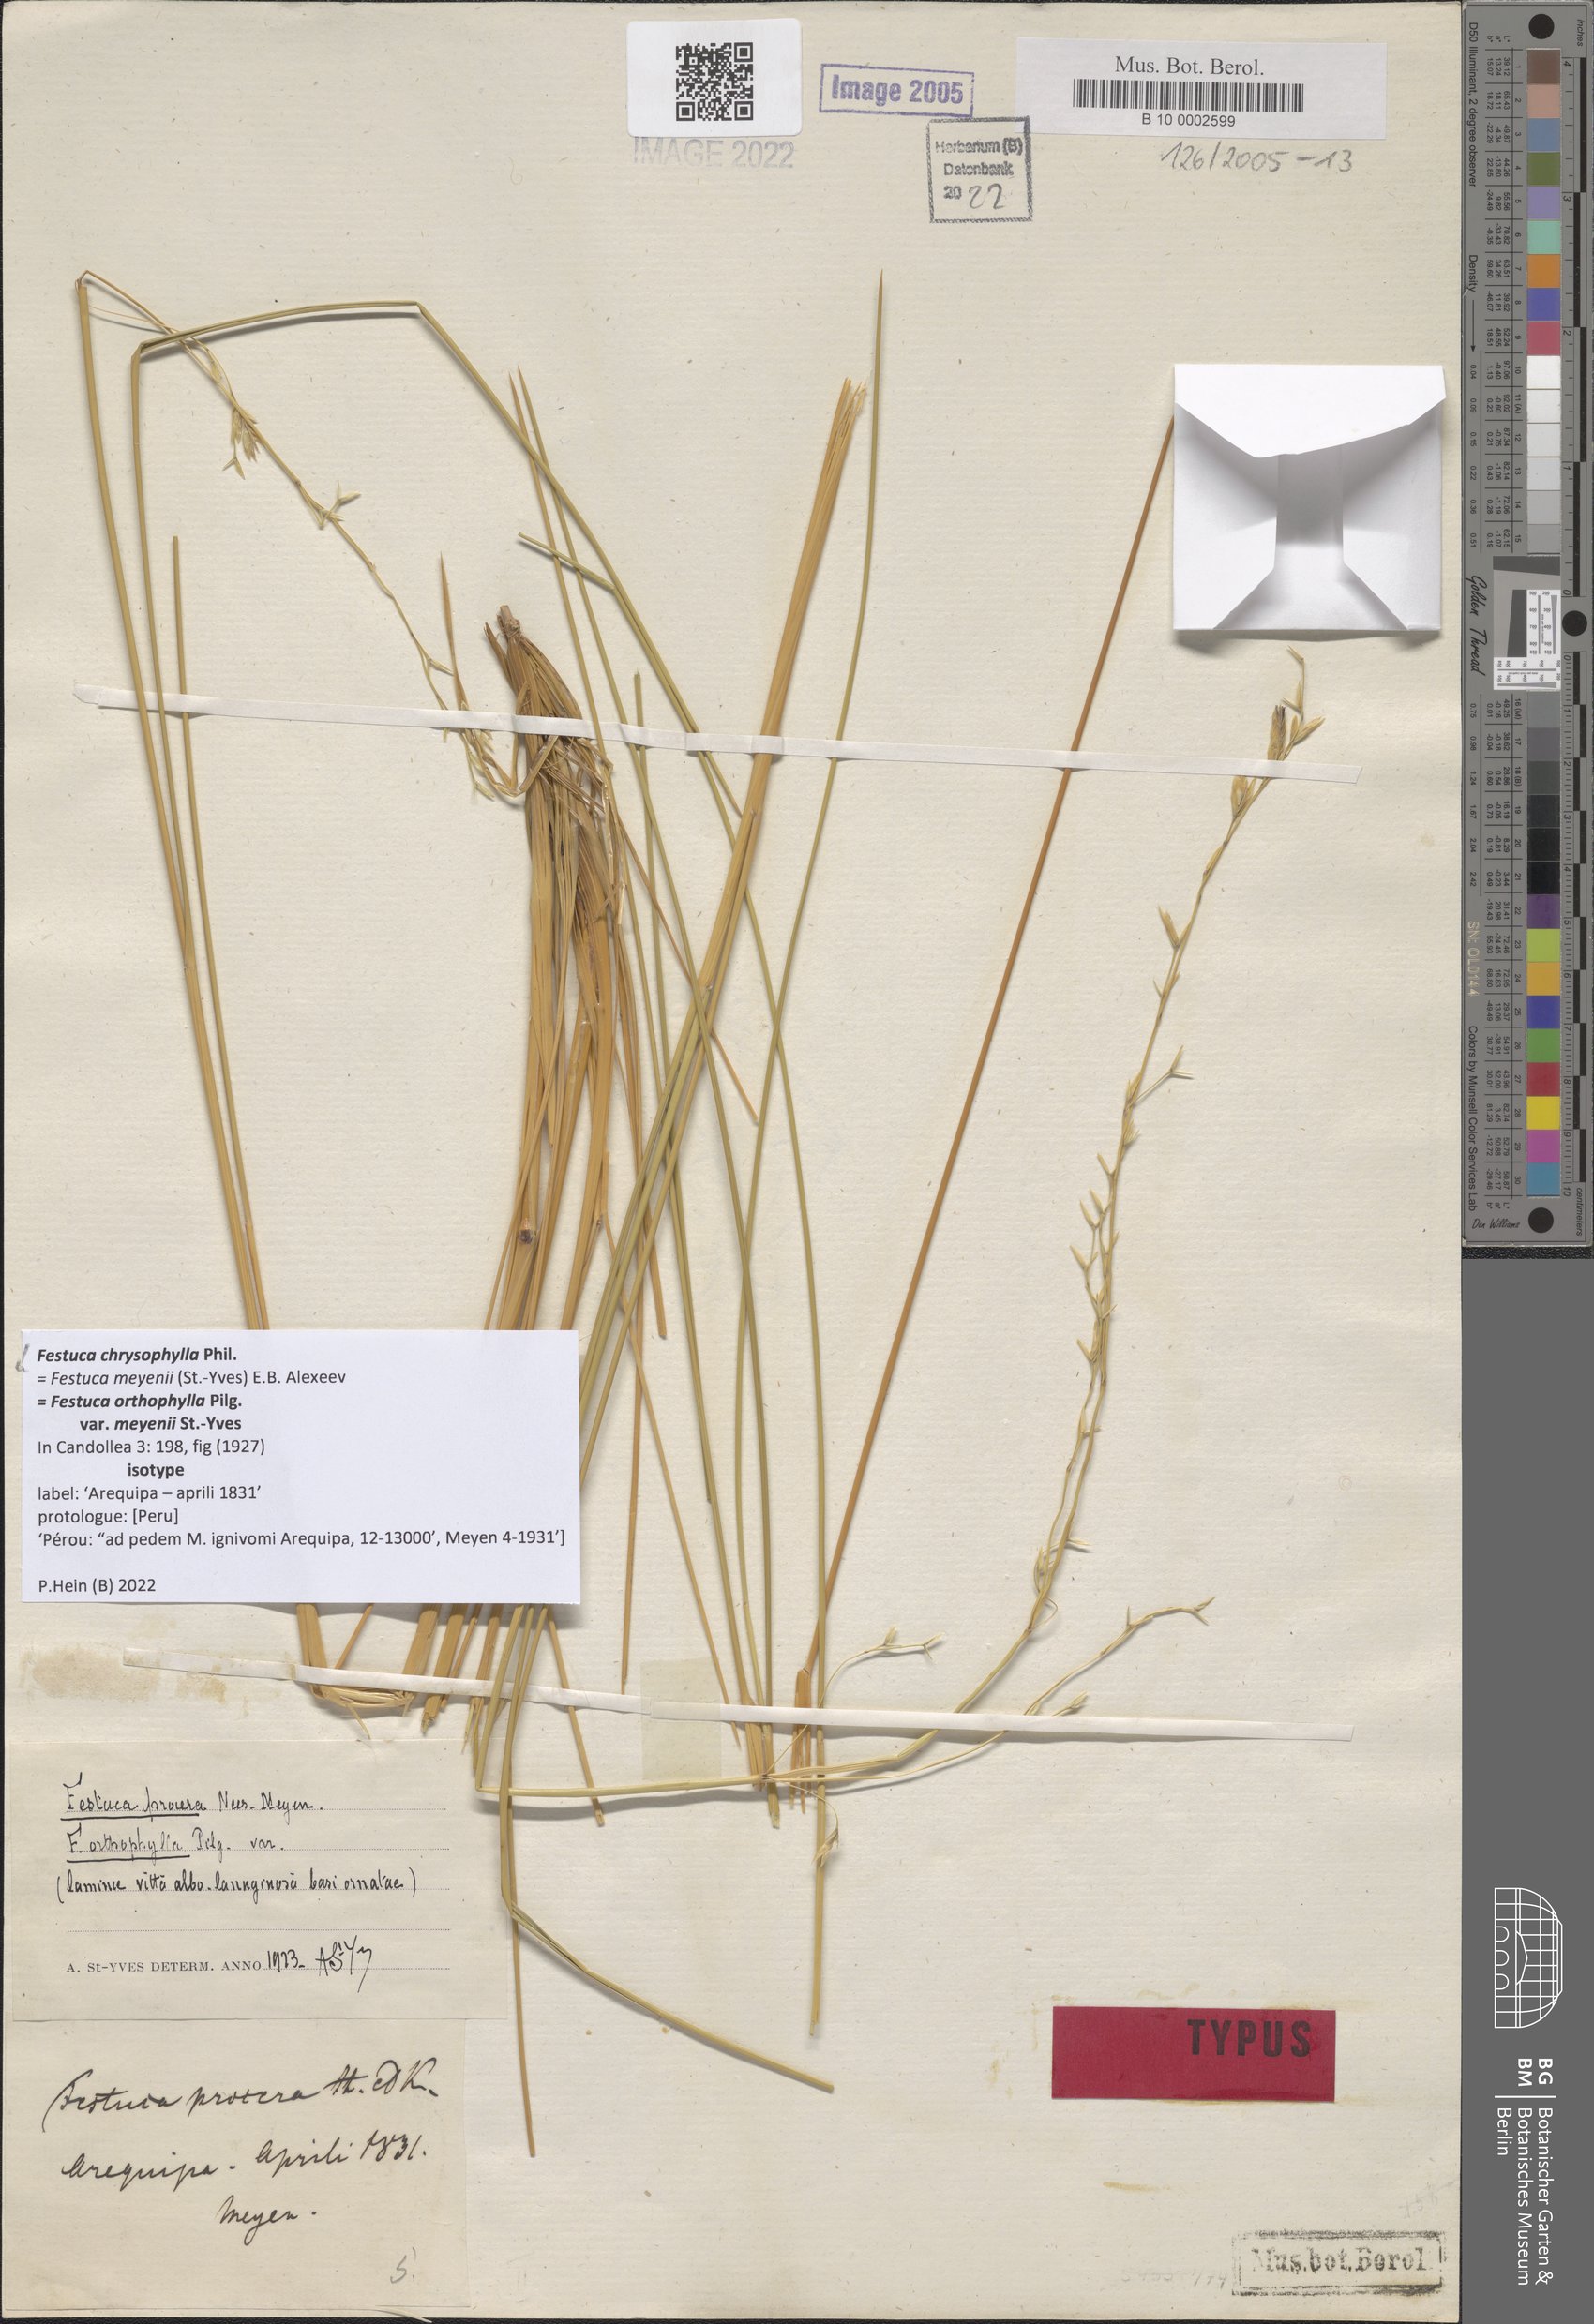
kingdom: Plantae
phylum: Tracheophyta
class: Liliopsida
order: Poales
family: Poaceae
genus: Festuca
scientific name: Festuca chrysophylla
